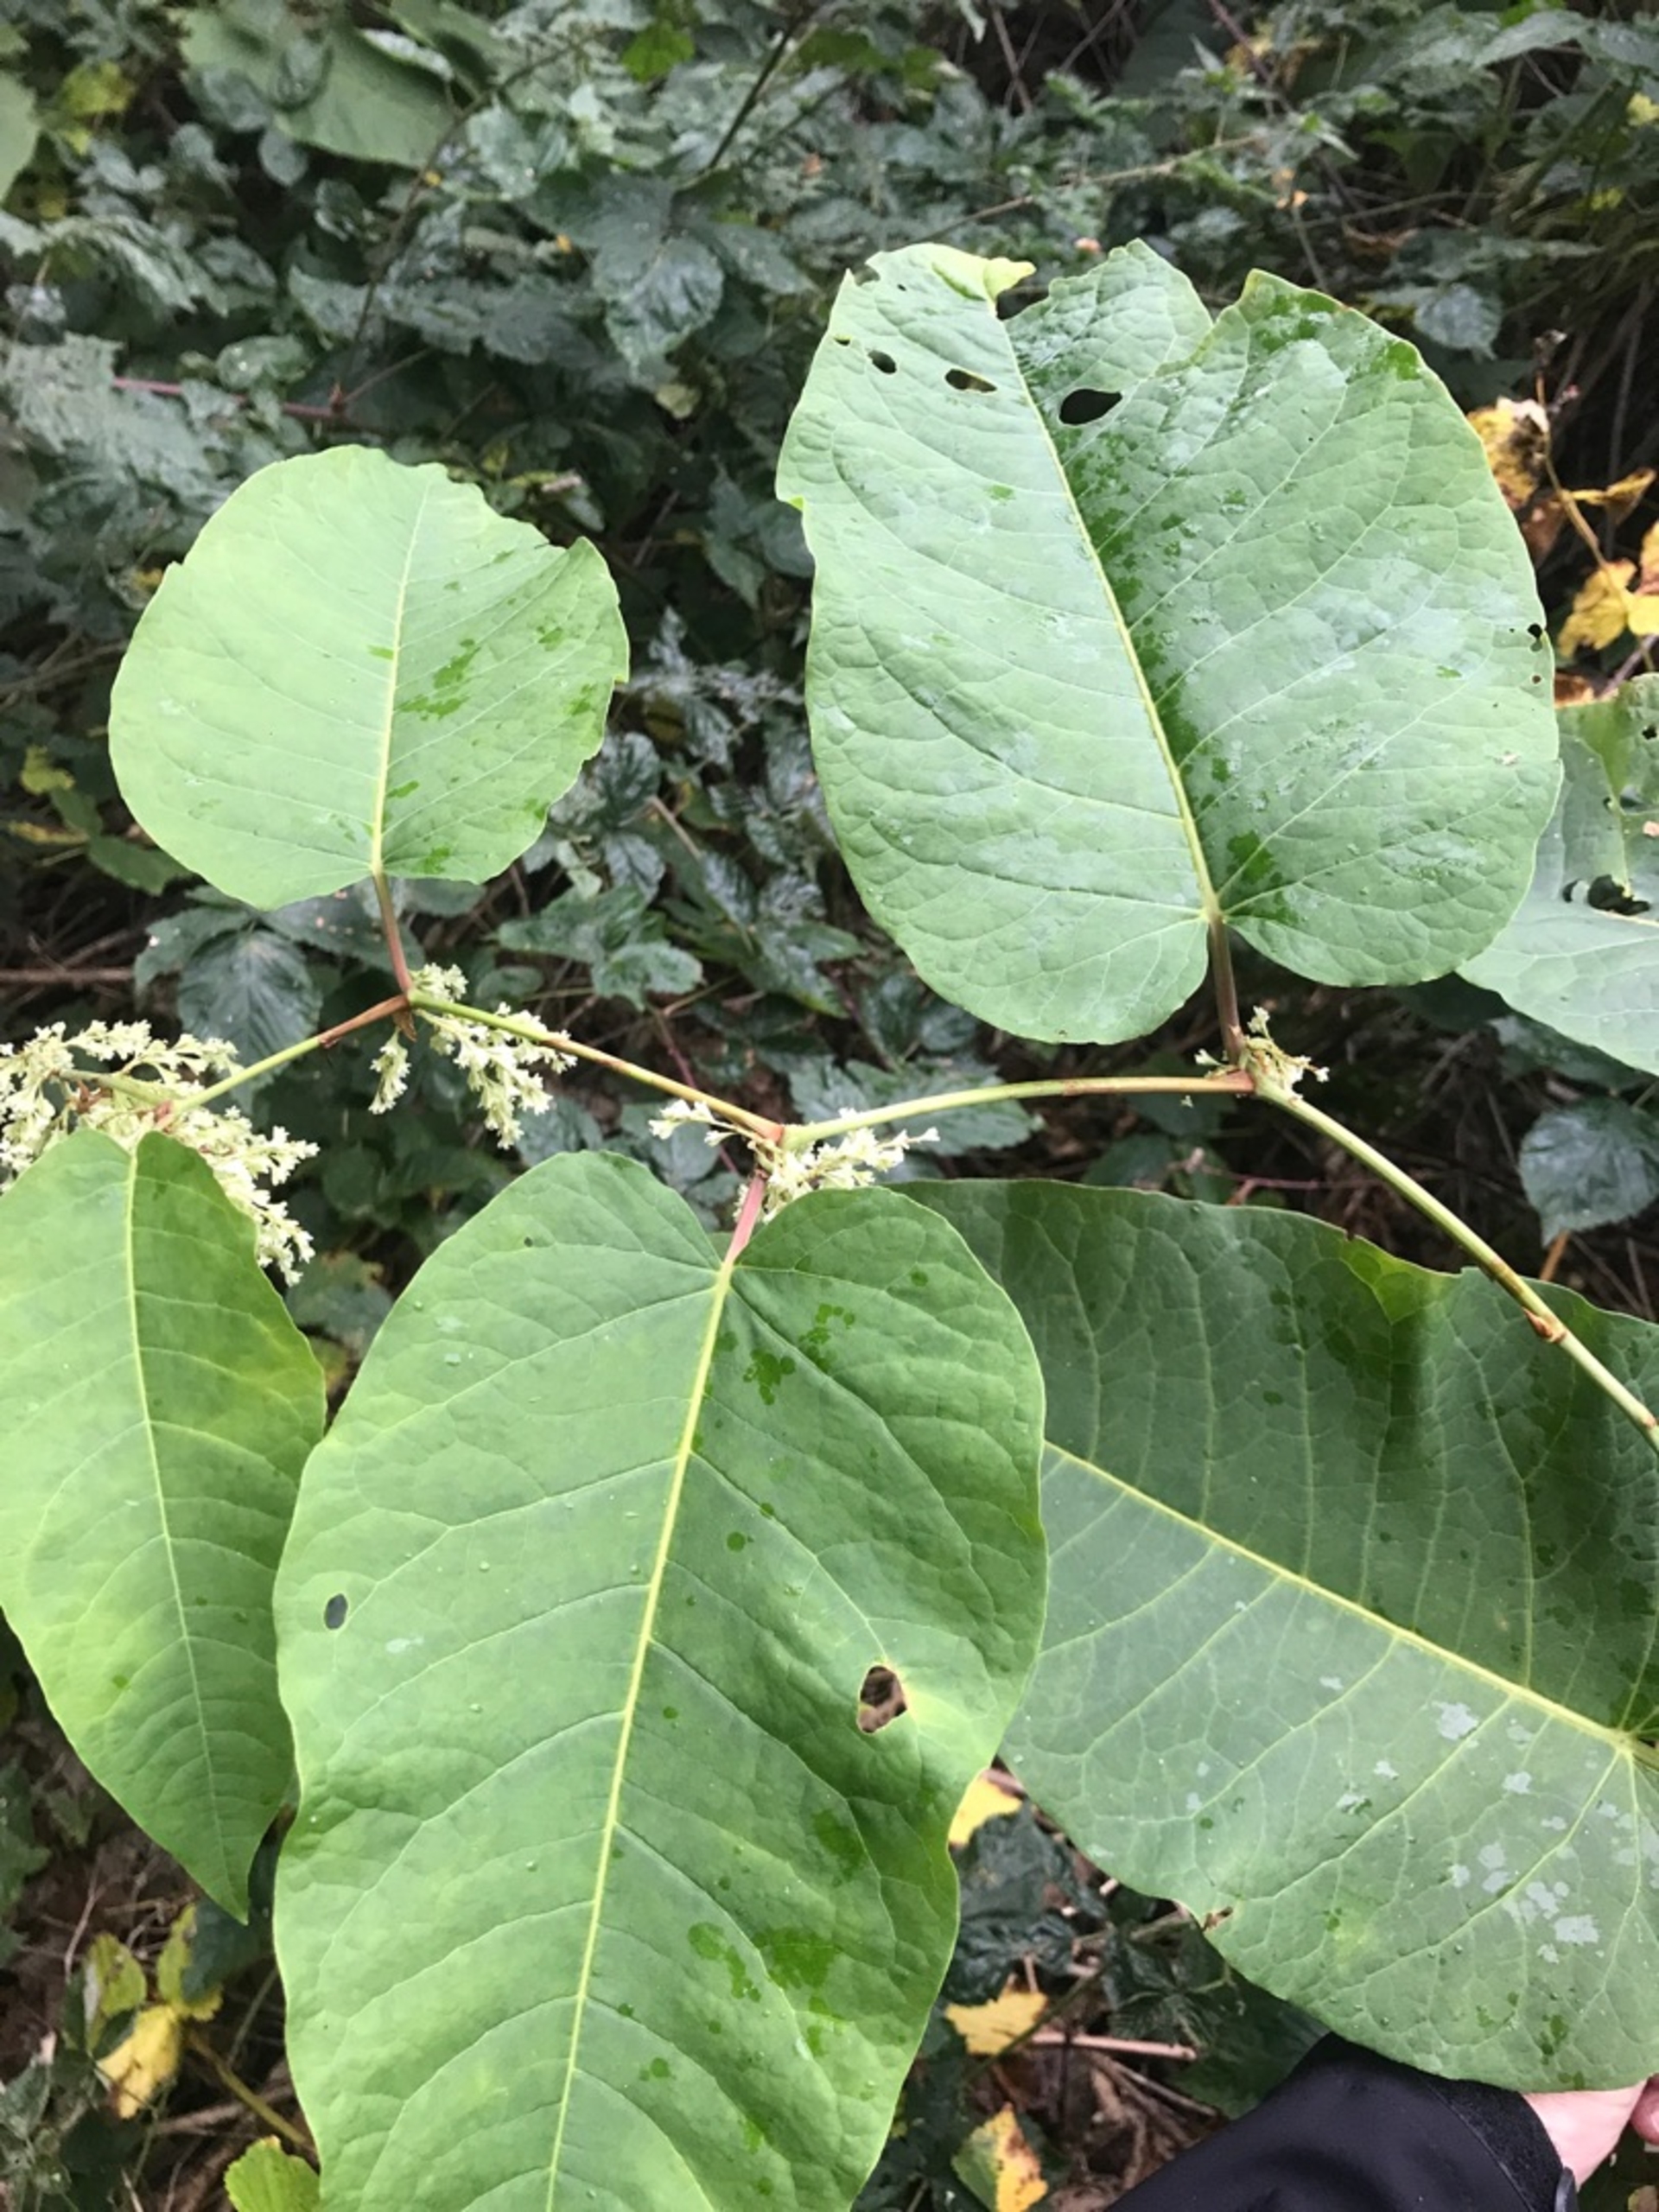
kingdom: Plantae
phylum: Tracheophyta
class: Magnoliopsida
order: Caryophyllales
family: Polygonaceae
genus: Reynoutria
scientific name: Reynoutria sachalinensis
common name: Kæmpe-pileurt
